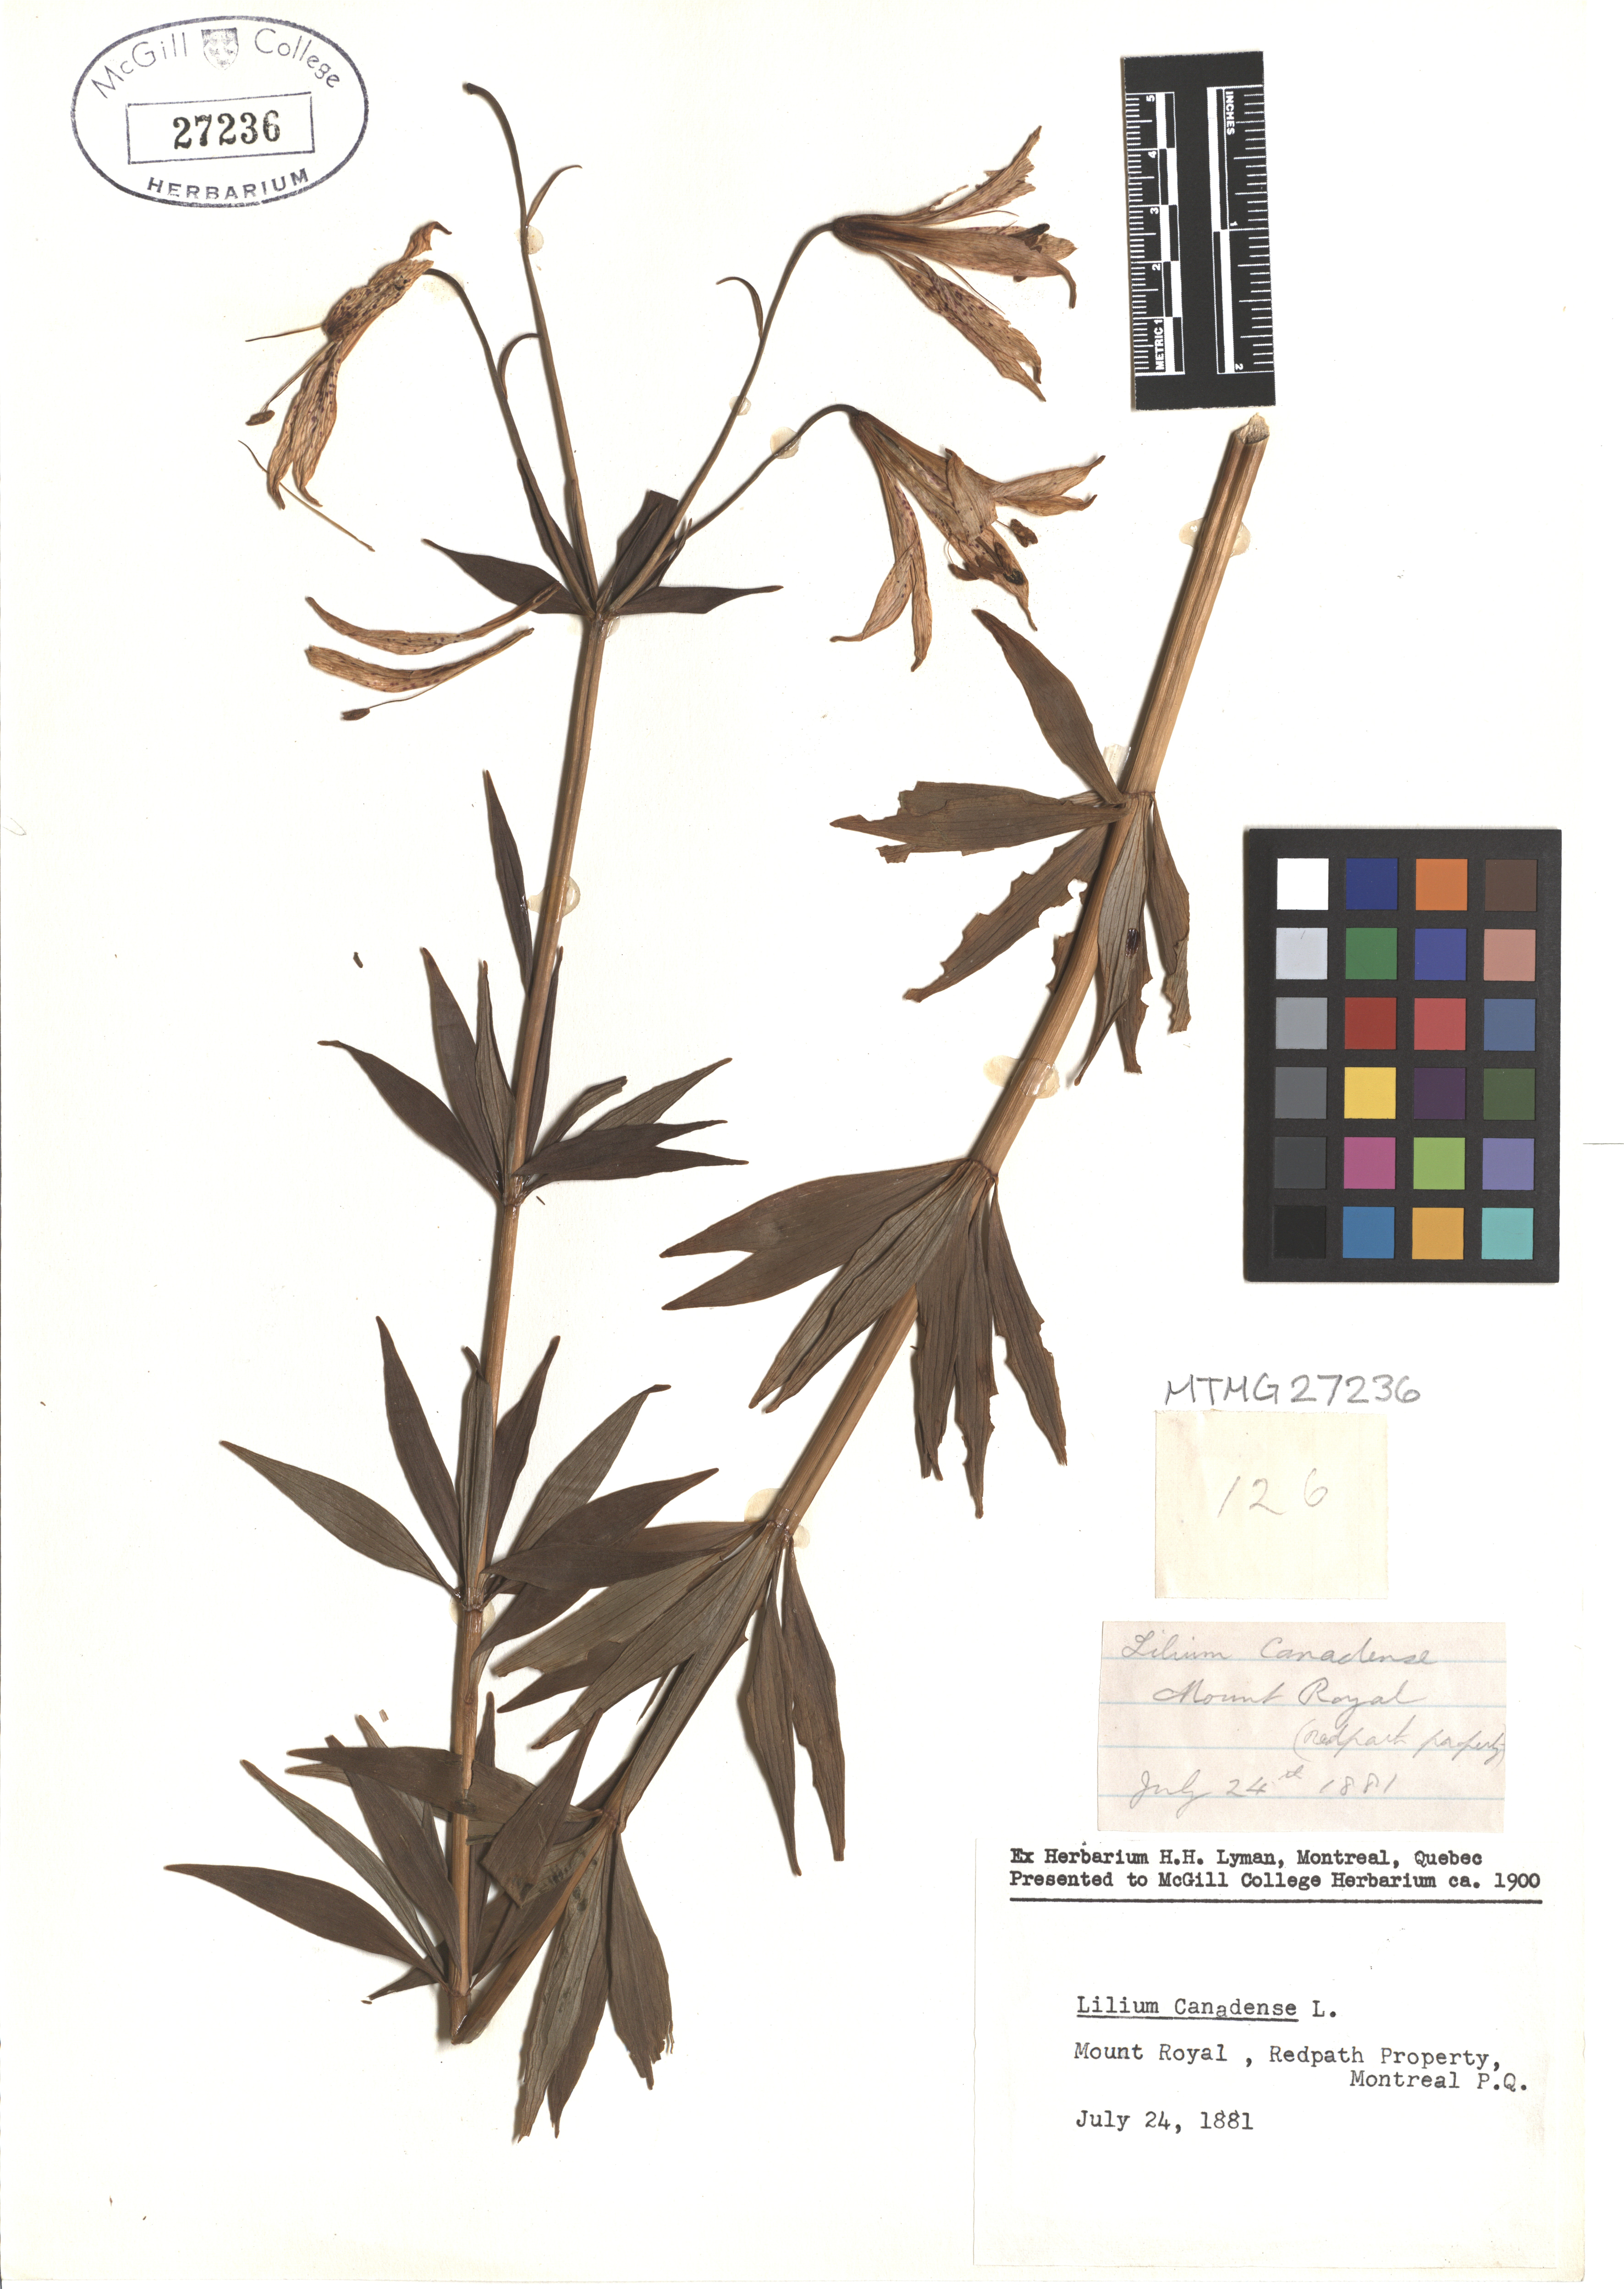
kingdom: Plantae
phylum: Tracheophyta
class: Liliopsida
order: Liliales
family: Liliaceae
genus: Lilium
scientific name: Lilium canadense
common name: Canada lily
